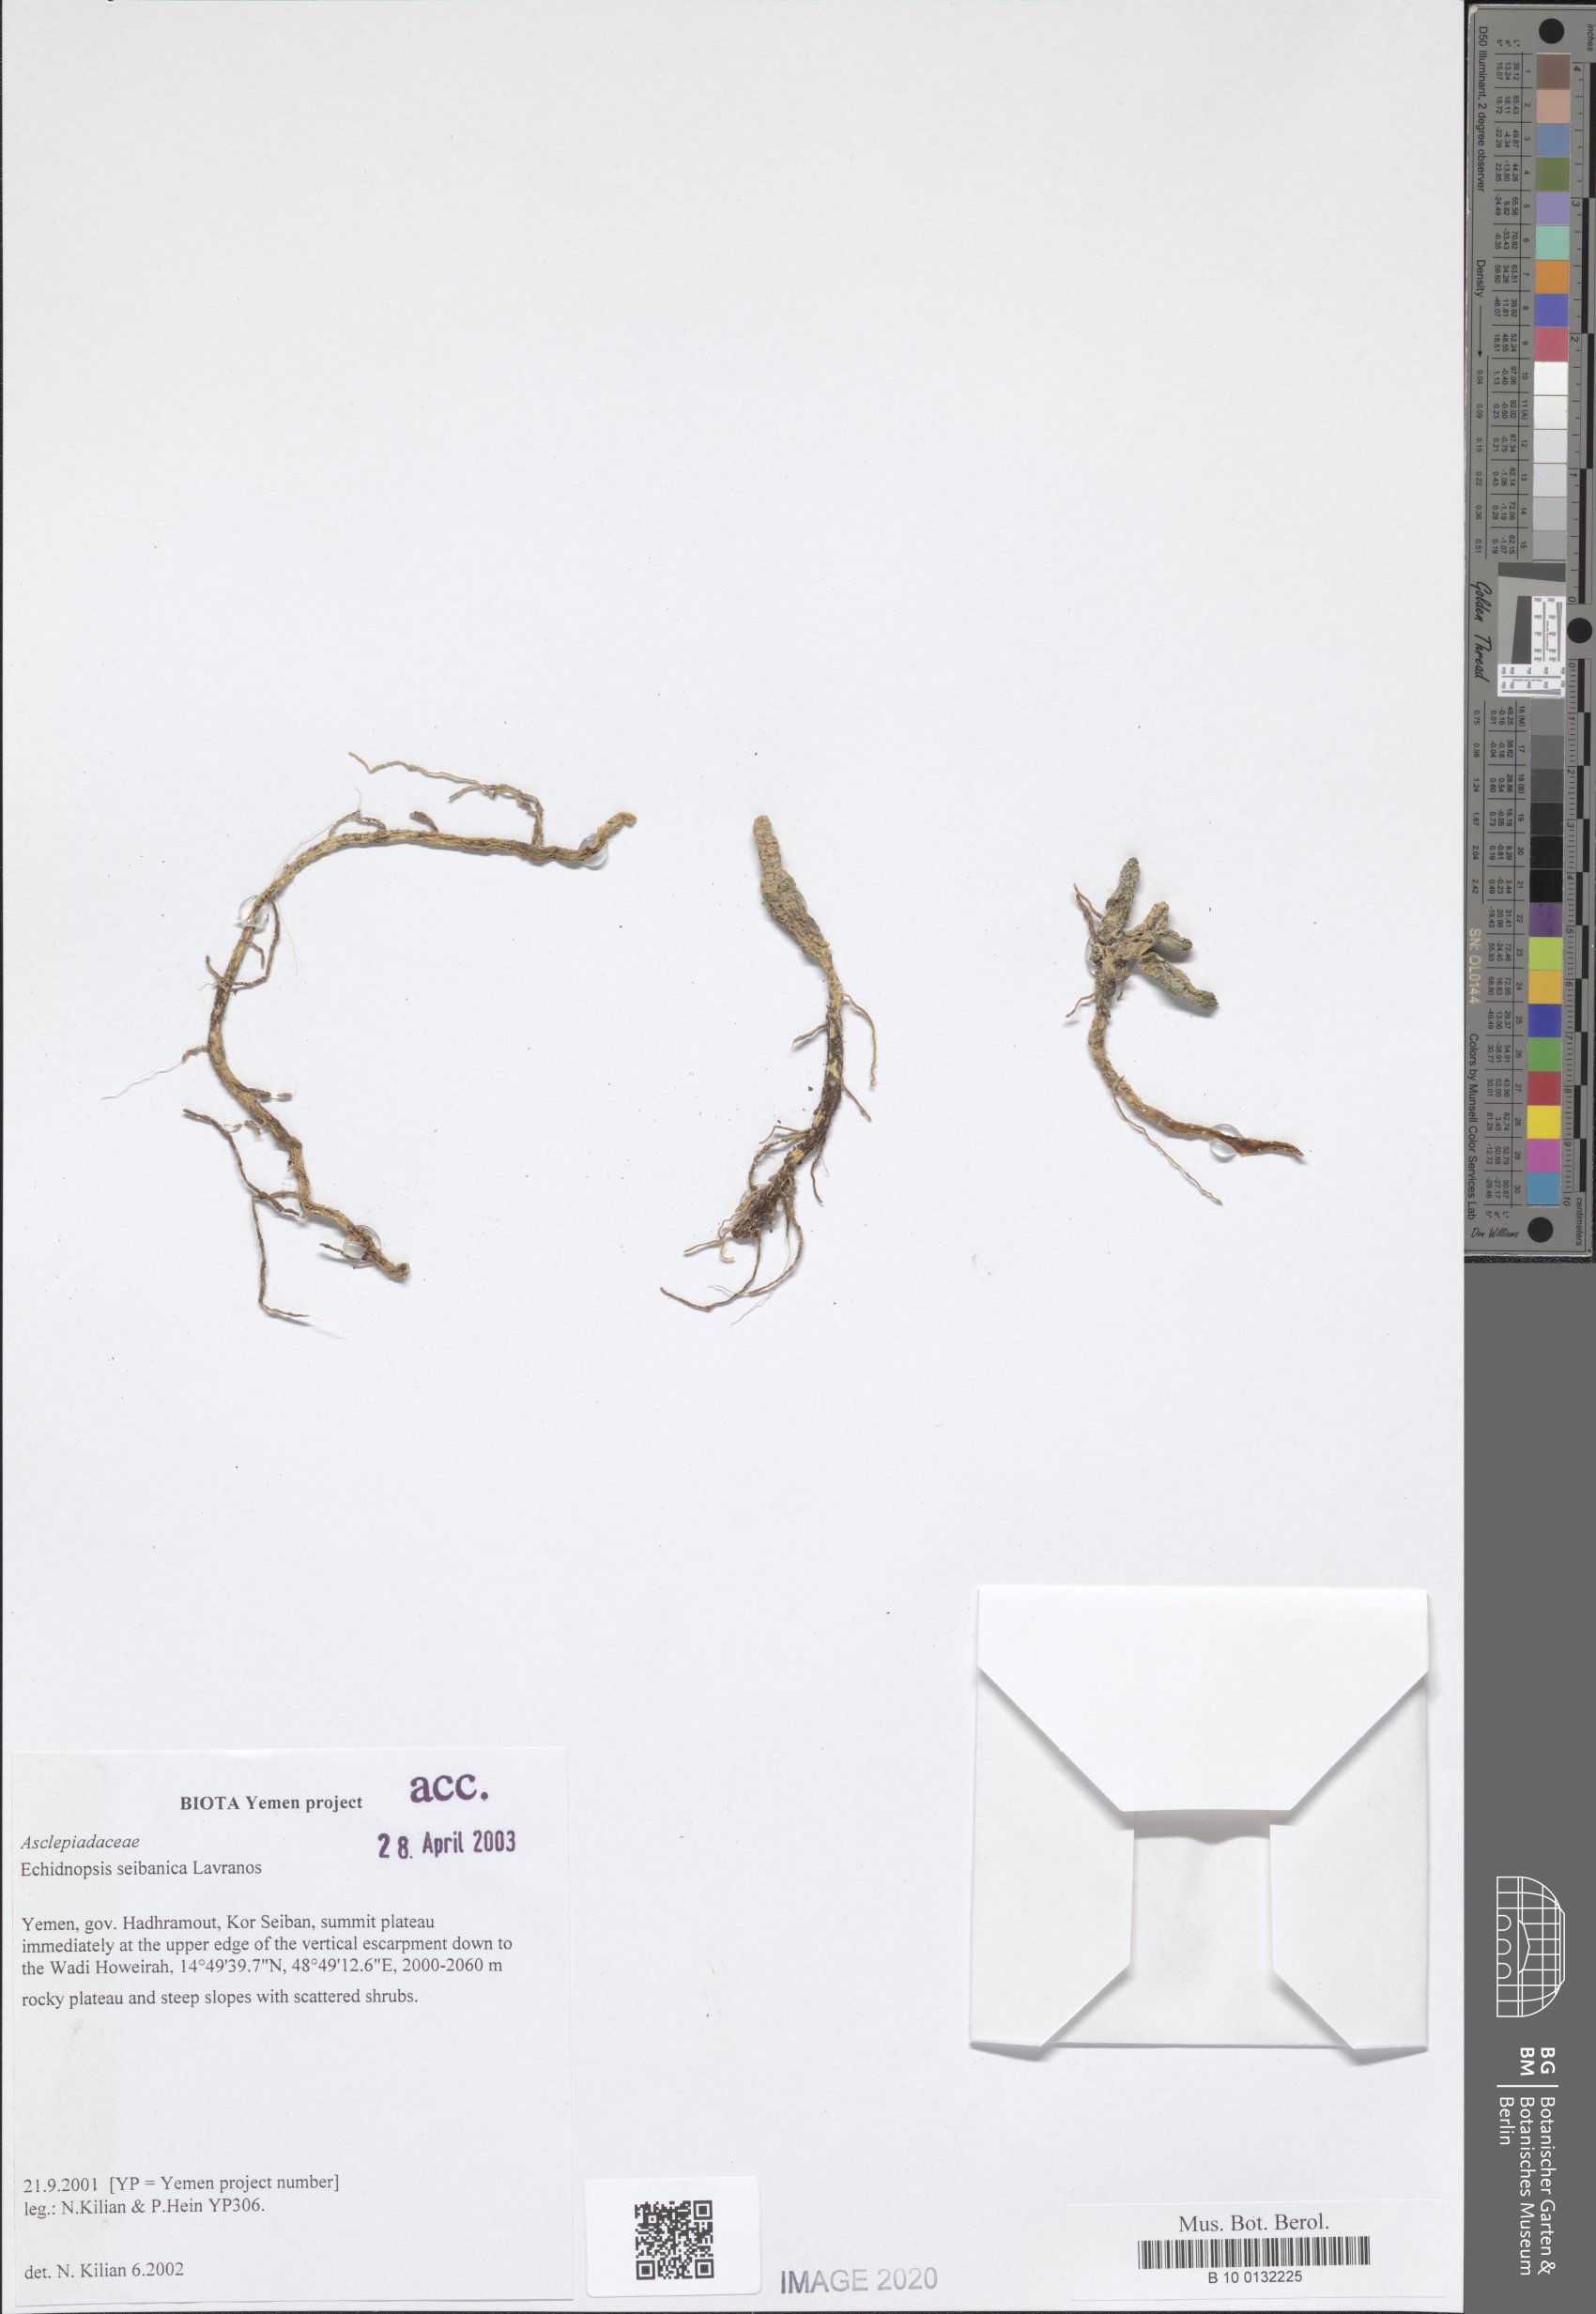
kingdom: Plantae
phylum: Tracheophyta
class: Magnoliopsida
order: Gentianales
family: Apocynaceae
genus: Ceropegia
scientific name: Ceropegia seibanica
